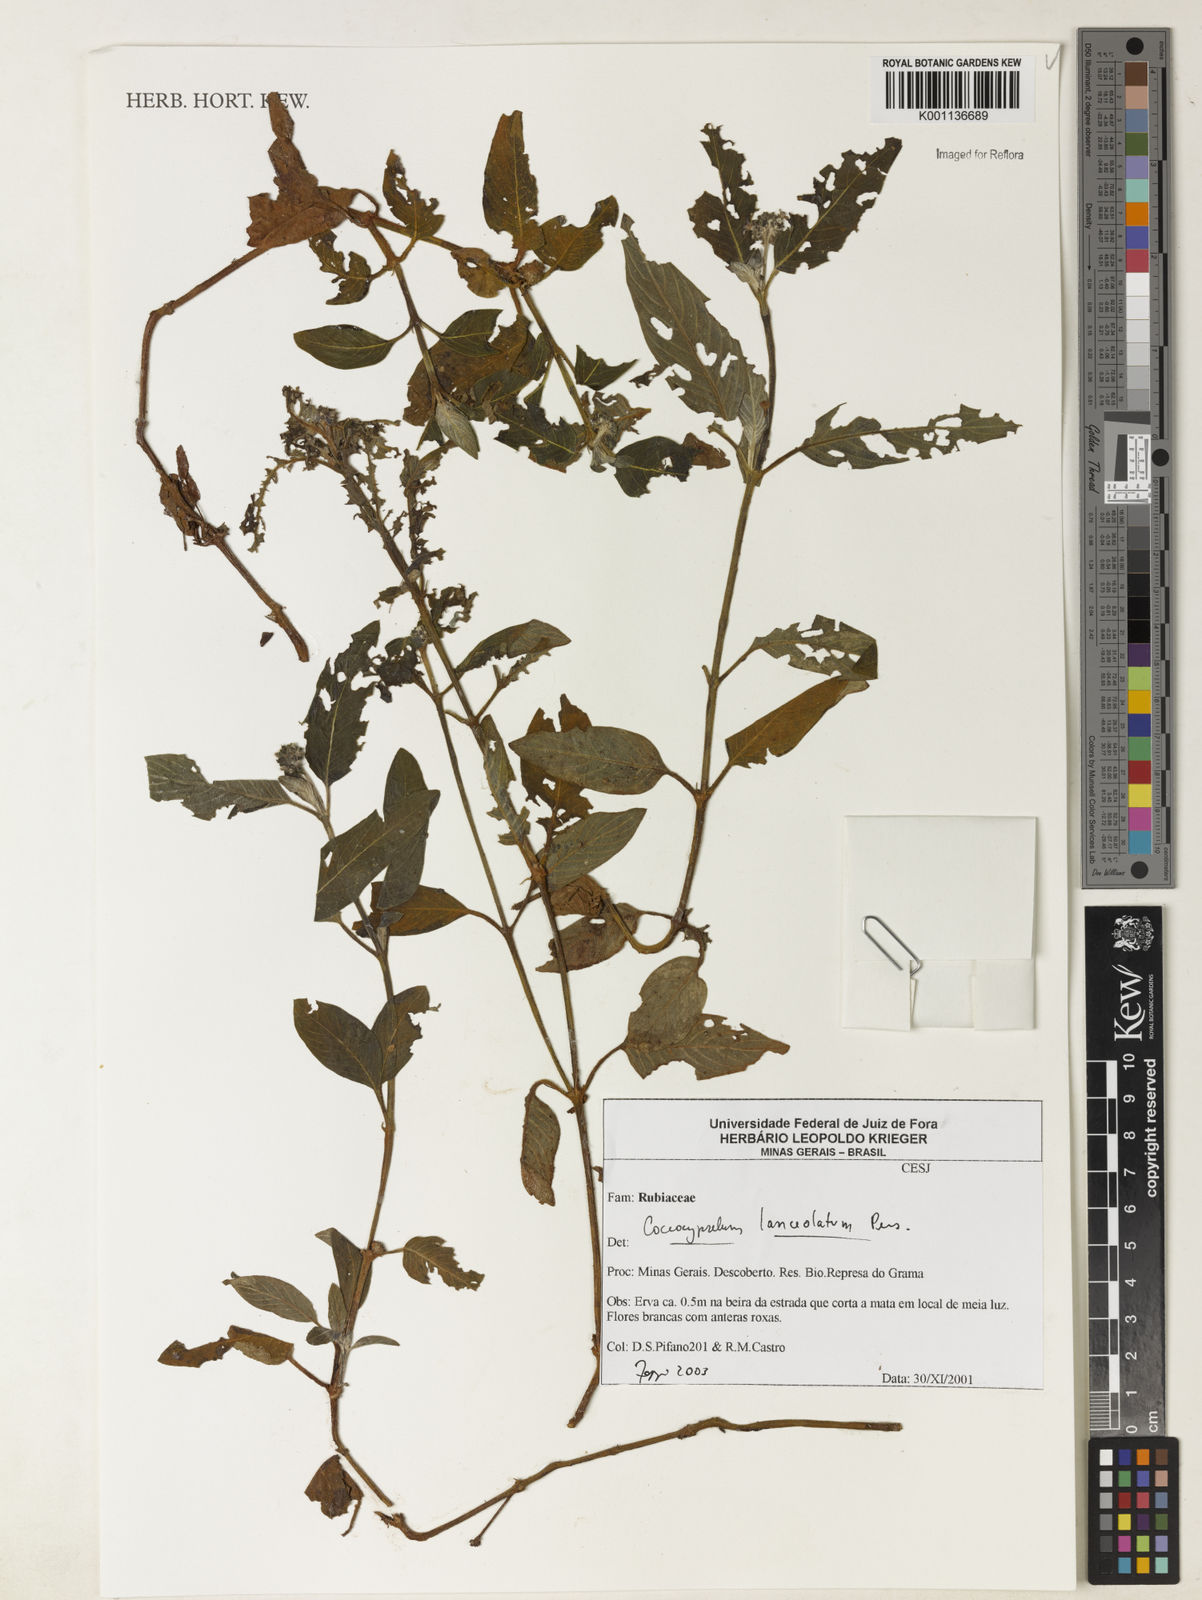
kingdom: Plantae
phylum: Tracheophyta
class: Magnoliopsida
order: Gentianales
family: Rubiaceae
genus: Coccocypselum
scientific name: Coccocypselum lanceolatum
